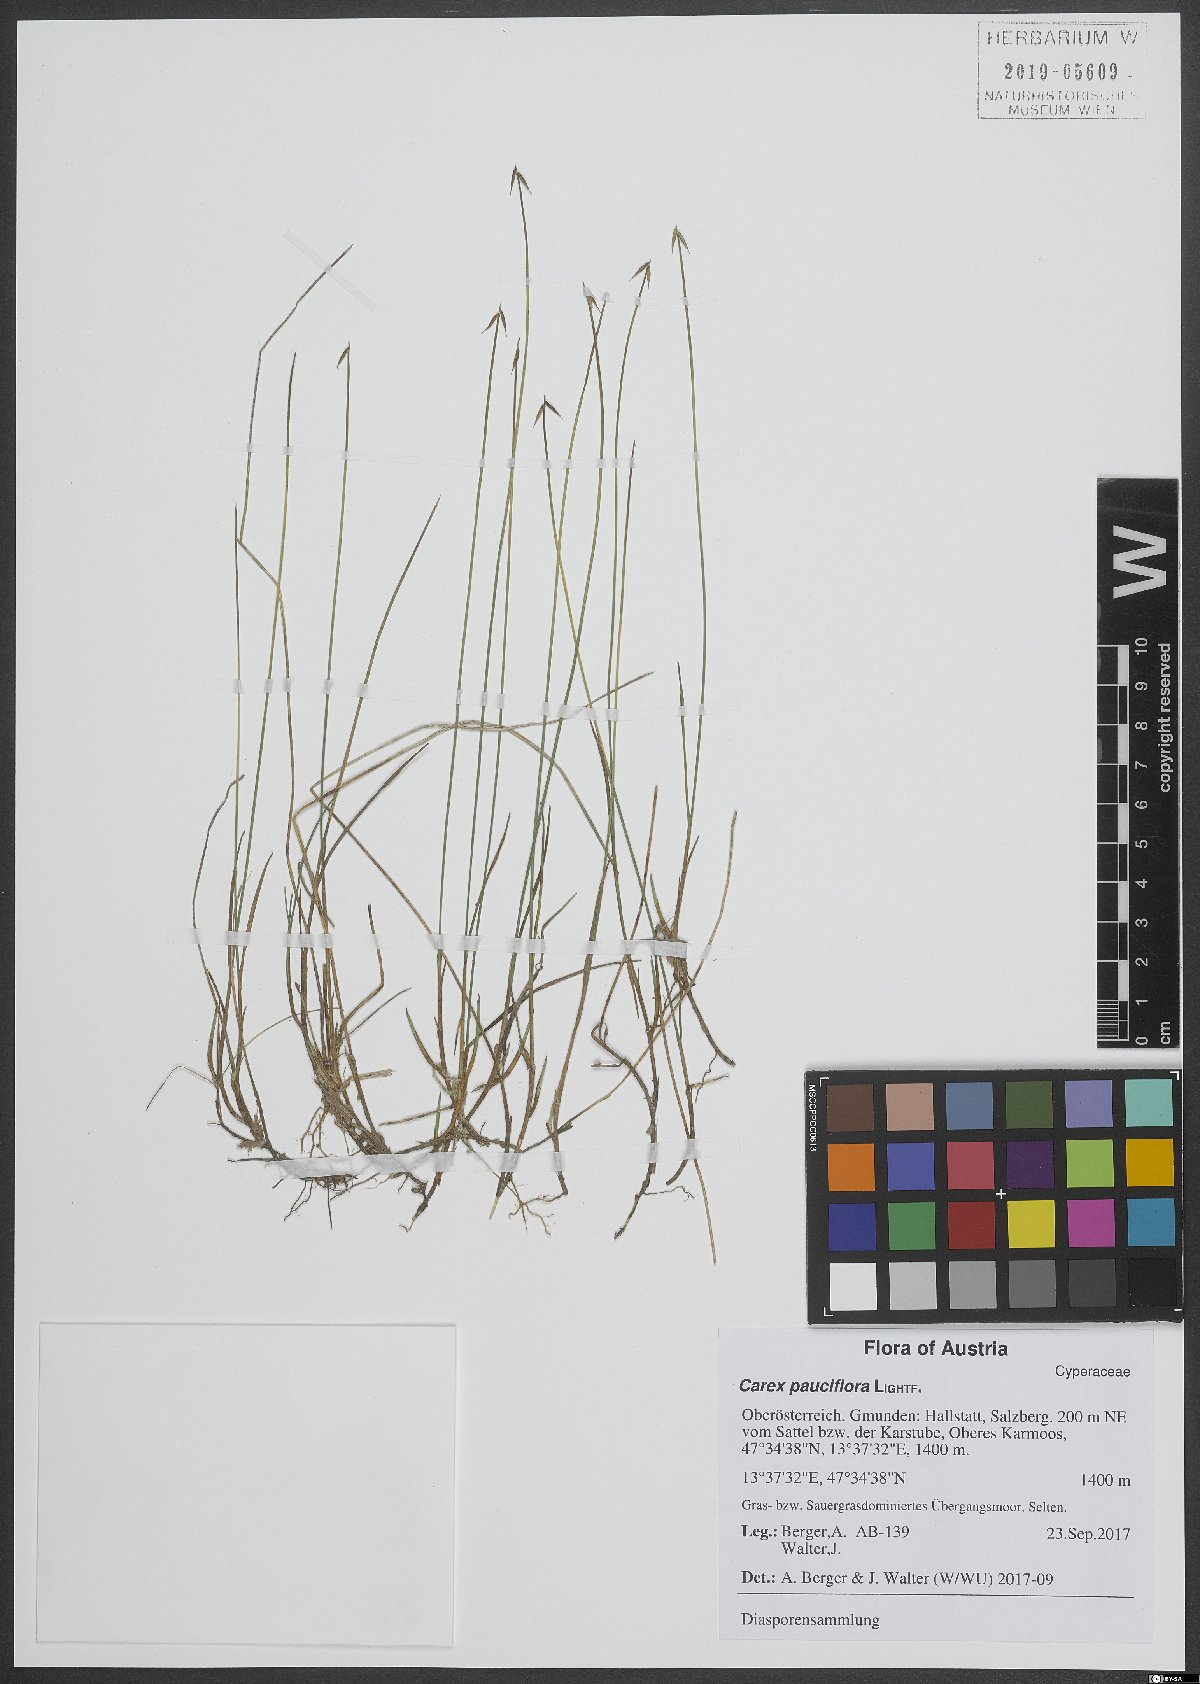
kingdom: Plantae
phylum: Tracheophyta
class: Liliopsida
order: Poales
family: Cyperaceae
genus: Carex
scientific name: Carex pauciflora
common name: Few-flowered sedge
